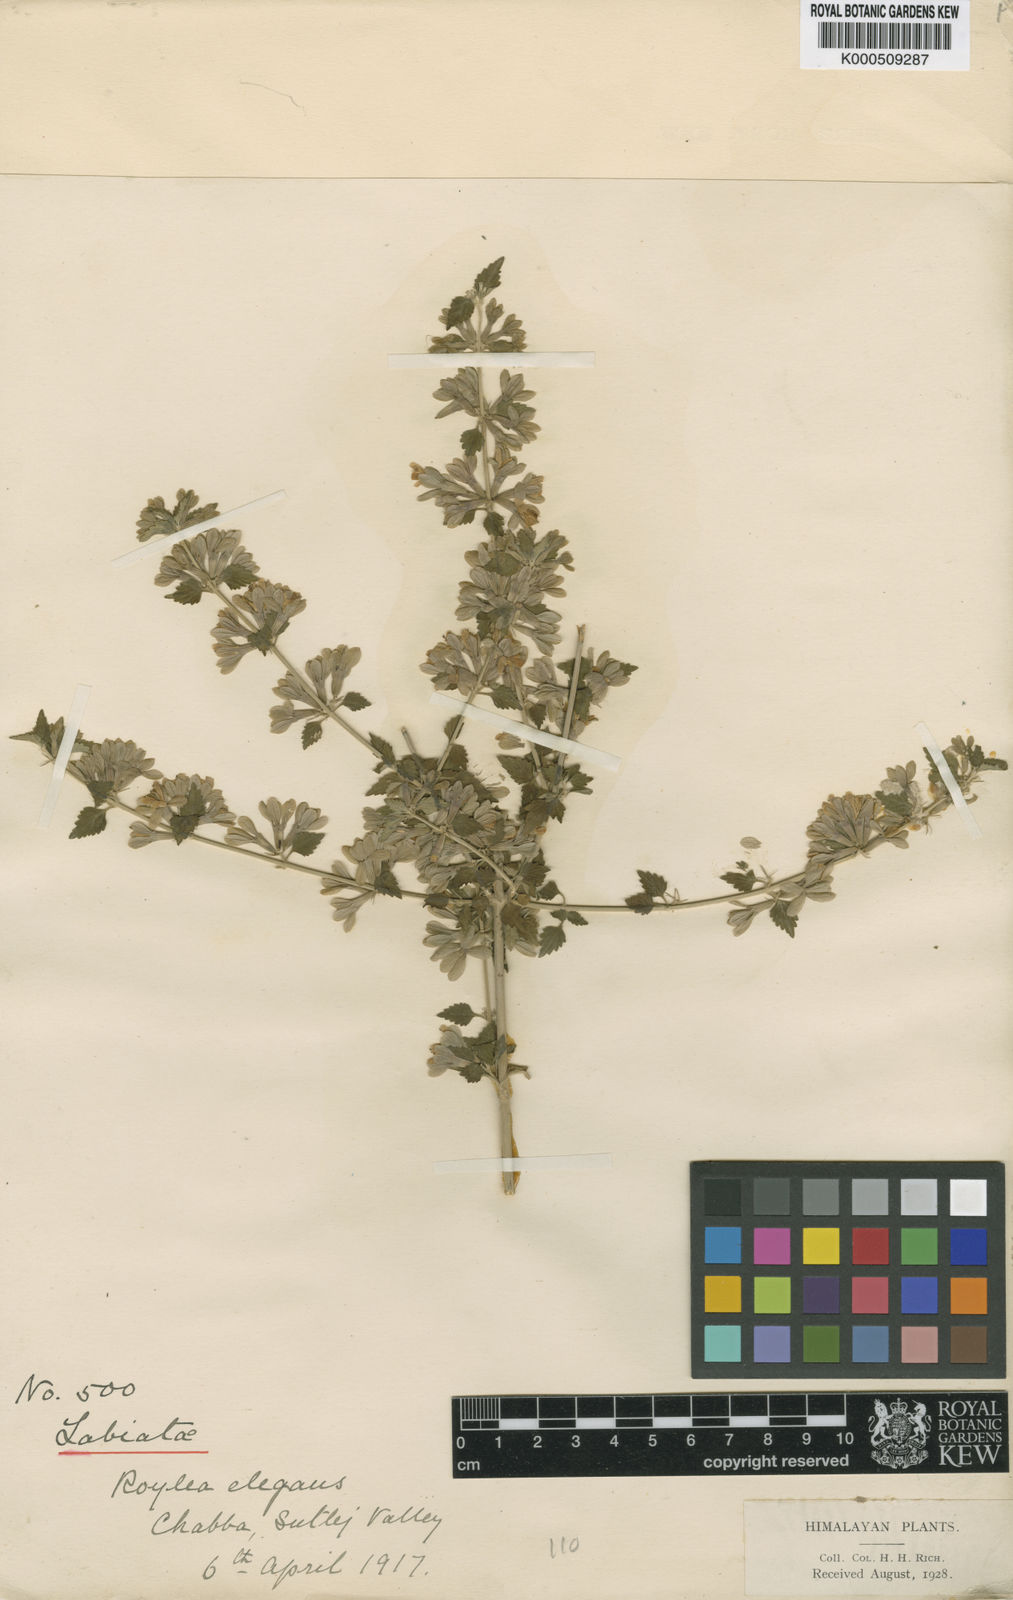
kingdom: Plantae
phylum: Tracheophyta
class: Magnoliopsida
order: Lamiales
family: Lamiaceae
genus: Roylea
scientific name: Roylea cinerea
